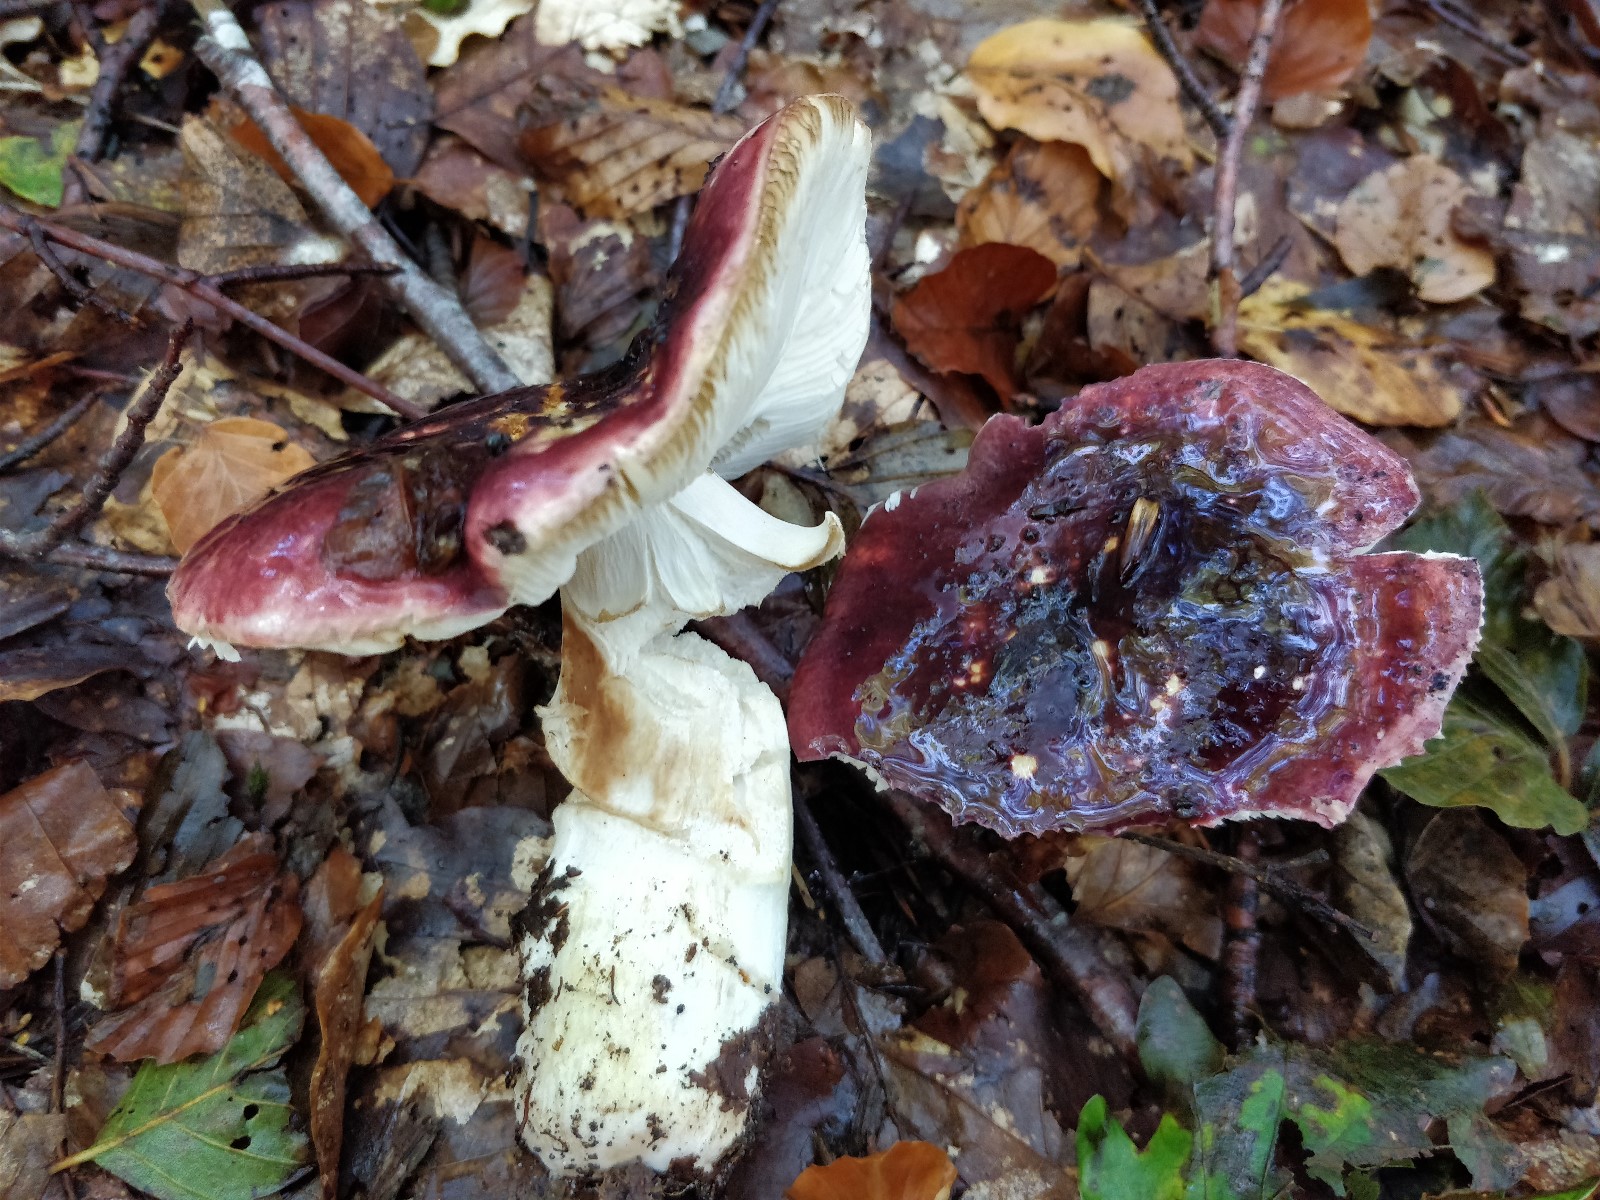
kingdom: Fungi
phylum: Basidiomycota
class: Agaricomycetes
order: Russulales
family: Russulaceae
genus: Russula
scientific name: Russula atropurpurea
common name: purpurbroget skørhat
